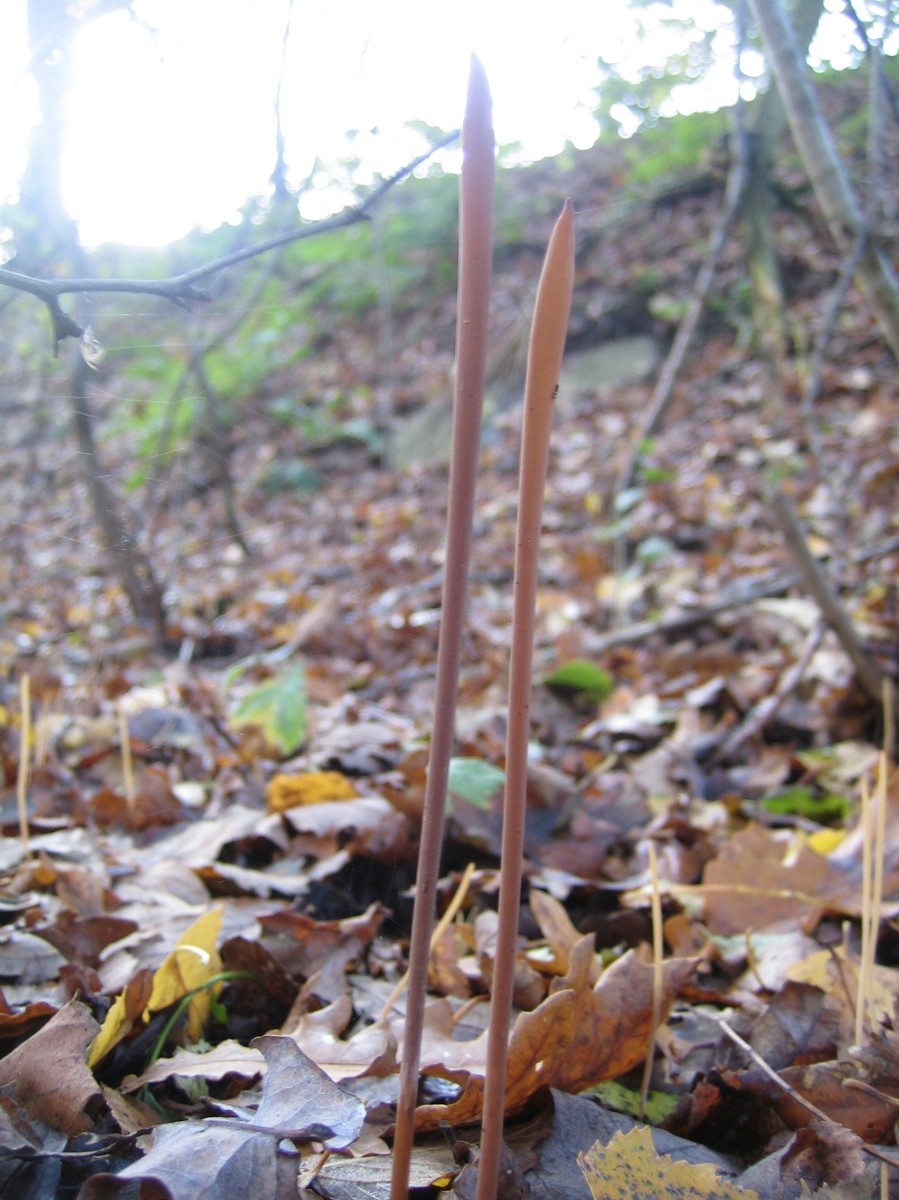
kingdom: Fungi
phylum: Basidiomycota
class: Agaricomycetes
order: Agaricales
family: Typhulaceae
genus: Typhula
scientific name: Typhula fistulosa
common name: pibet rørkølle
